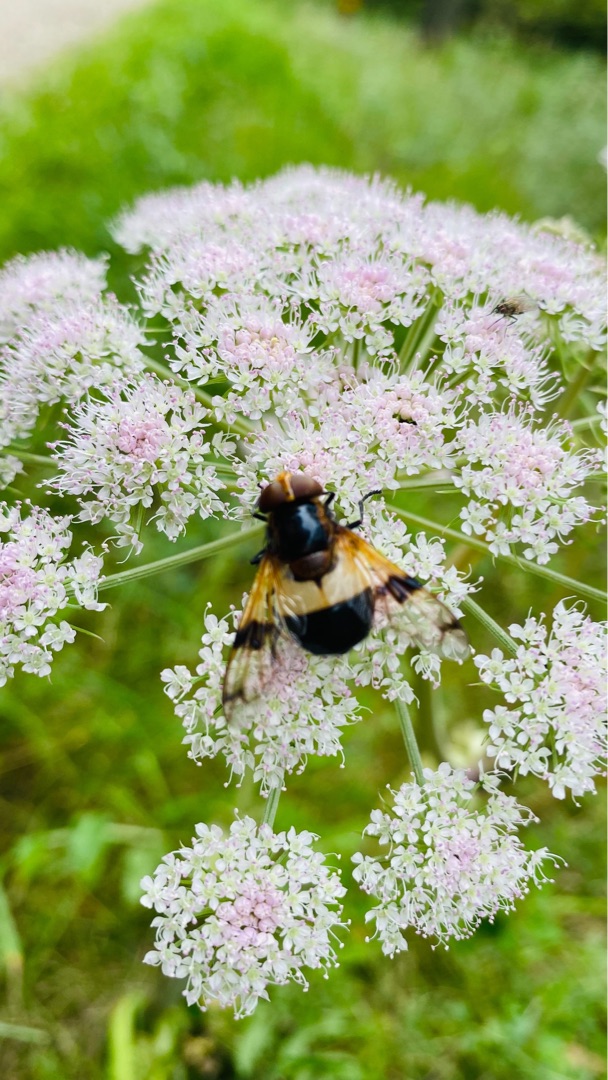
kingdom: Animalia
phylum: Arthropoda
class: Insecta
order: Diptera
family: Syrphidae
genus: Volucella
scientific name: Volucella pellucens
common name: Hvidbåndet humlesvirreflue
